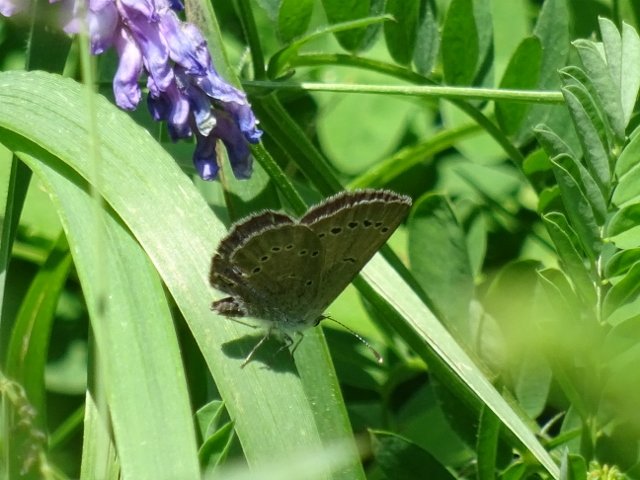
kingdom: Animalia
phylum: Arthropoda
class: Insecta
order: Lepidoptera
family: Lycaenidae
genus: Glaucopsyche
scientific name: Glaucopsyche lygdamus
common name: Silvery Blue
